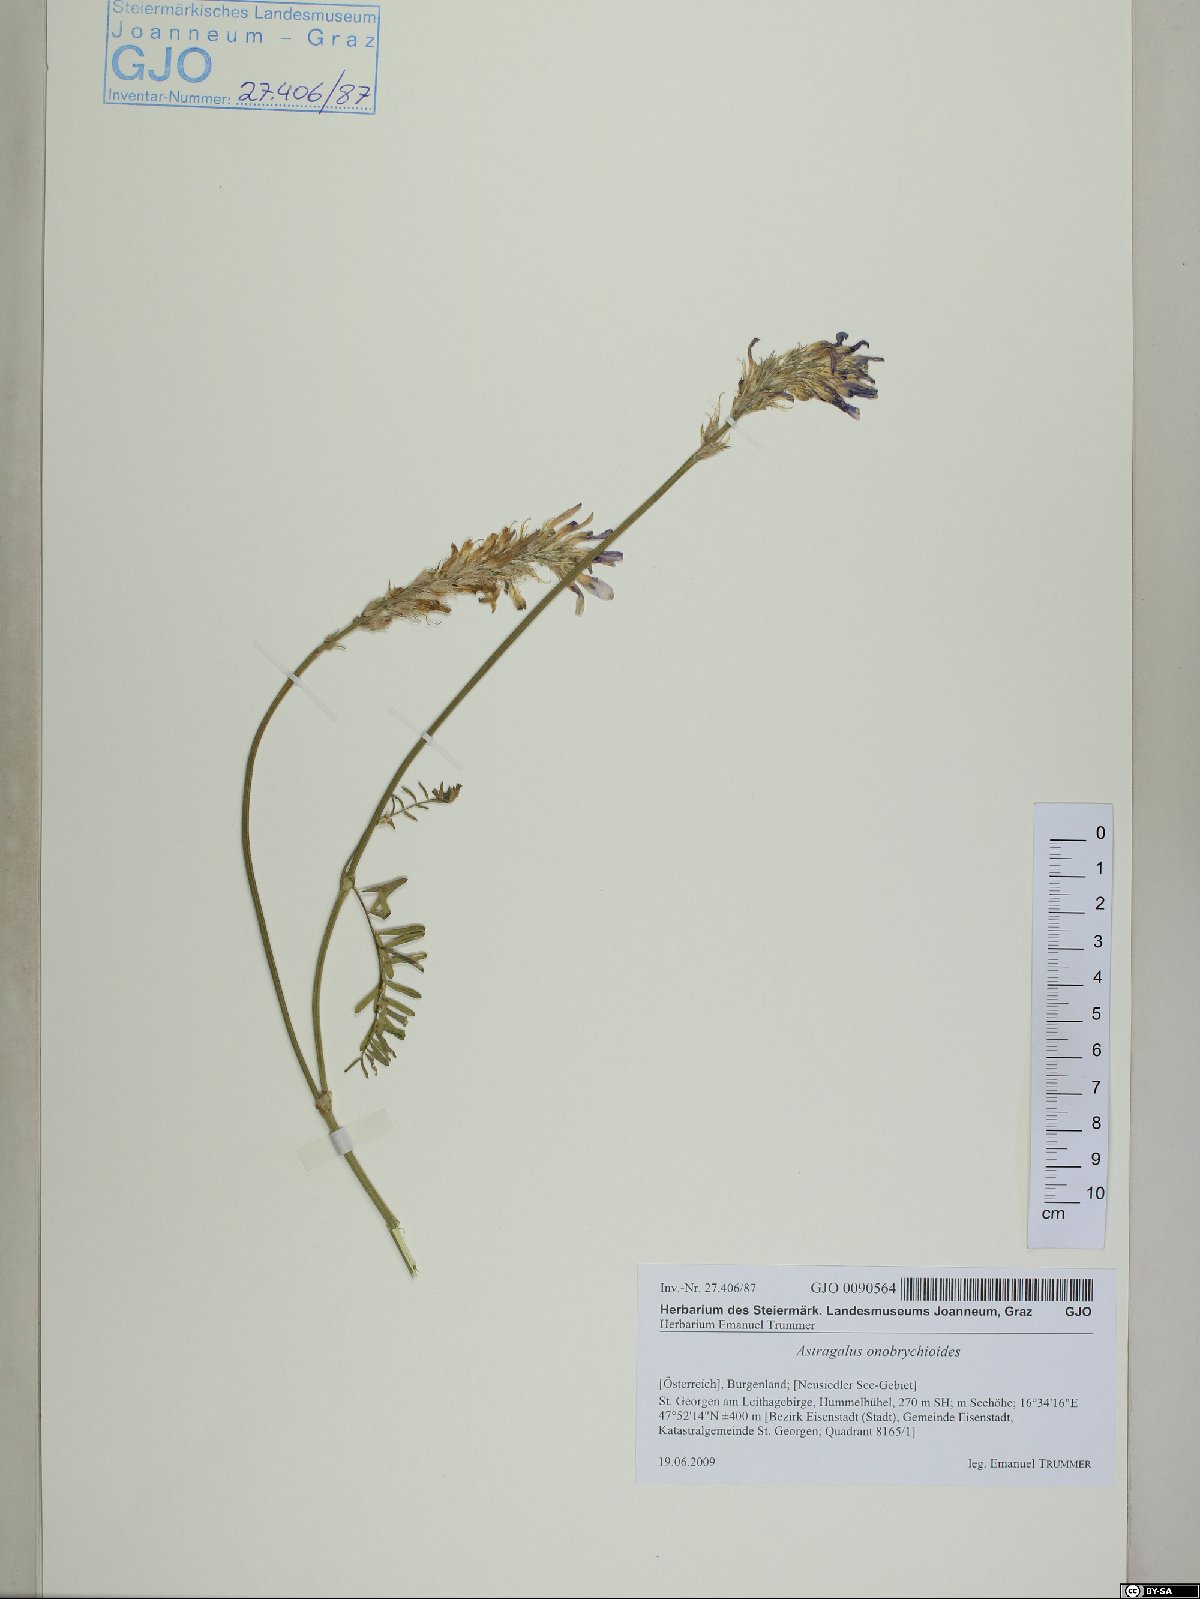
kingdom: Plantae
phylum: Tracheophyta
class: Magnoliopsida
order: Fabales
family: Fabaceae
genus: Astragalus
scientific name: Astragalus onobrychioides
